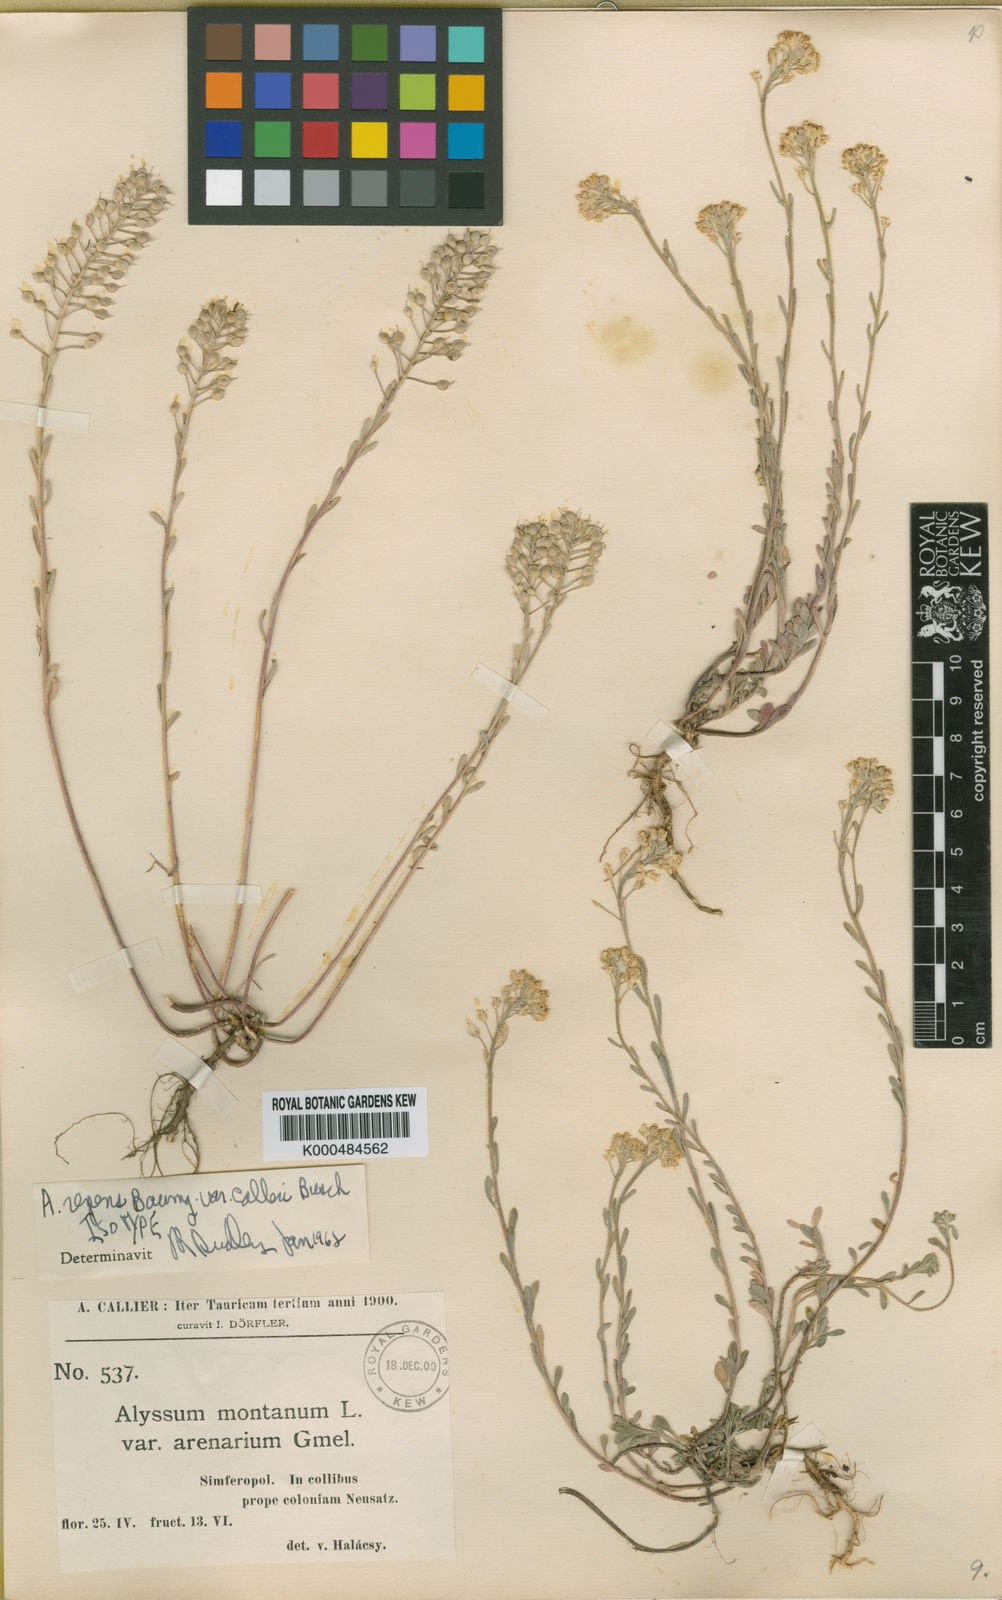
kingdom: Plantae
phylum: Tracheophyta
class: Magnoliopsida
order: Brassicales
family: Brassicaceae
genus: Alyssum
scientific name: Alyssum repens
